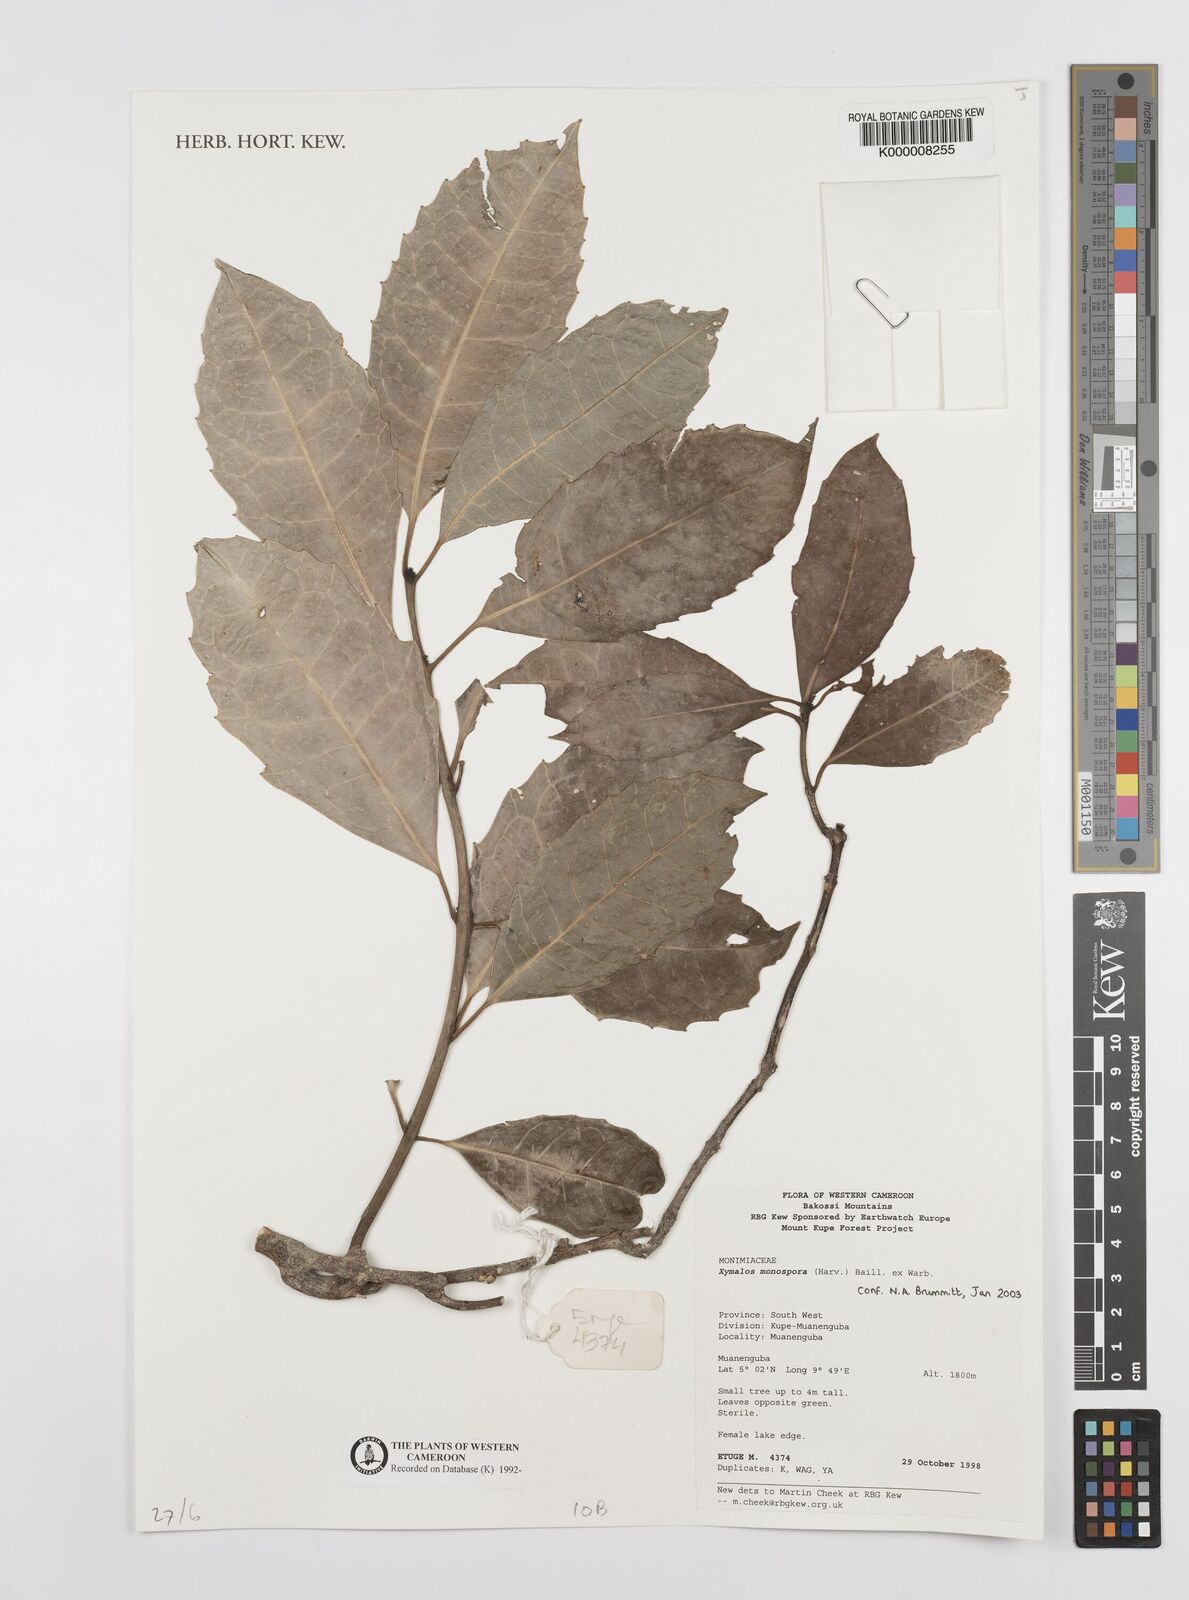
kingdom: Plantae
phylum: Tracheophyta
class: Magnoliopsida
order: Laurales
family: Monimiaceae
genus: Xymalos
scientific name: Xymalos
